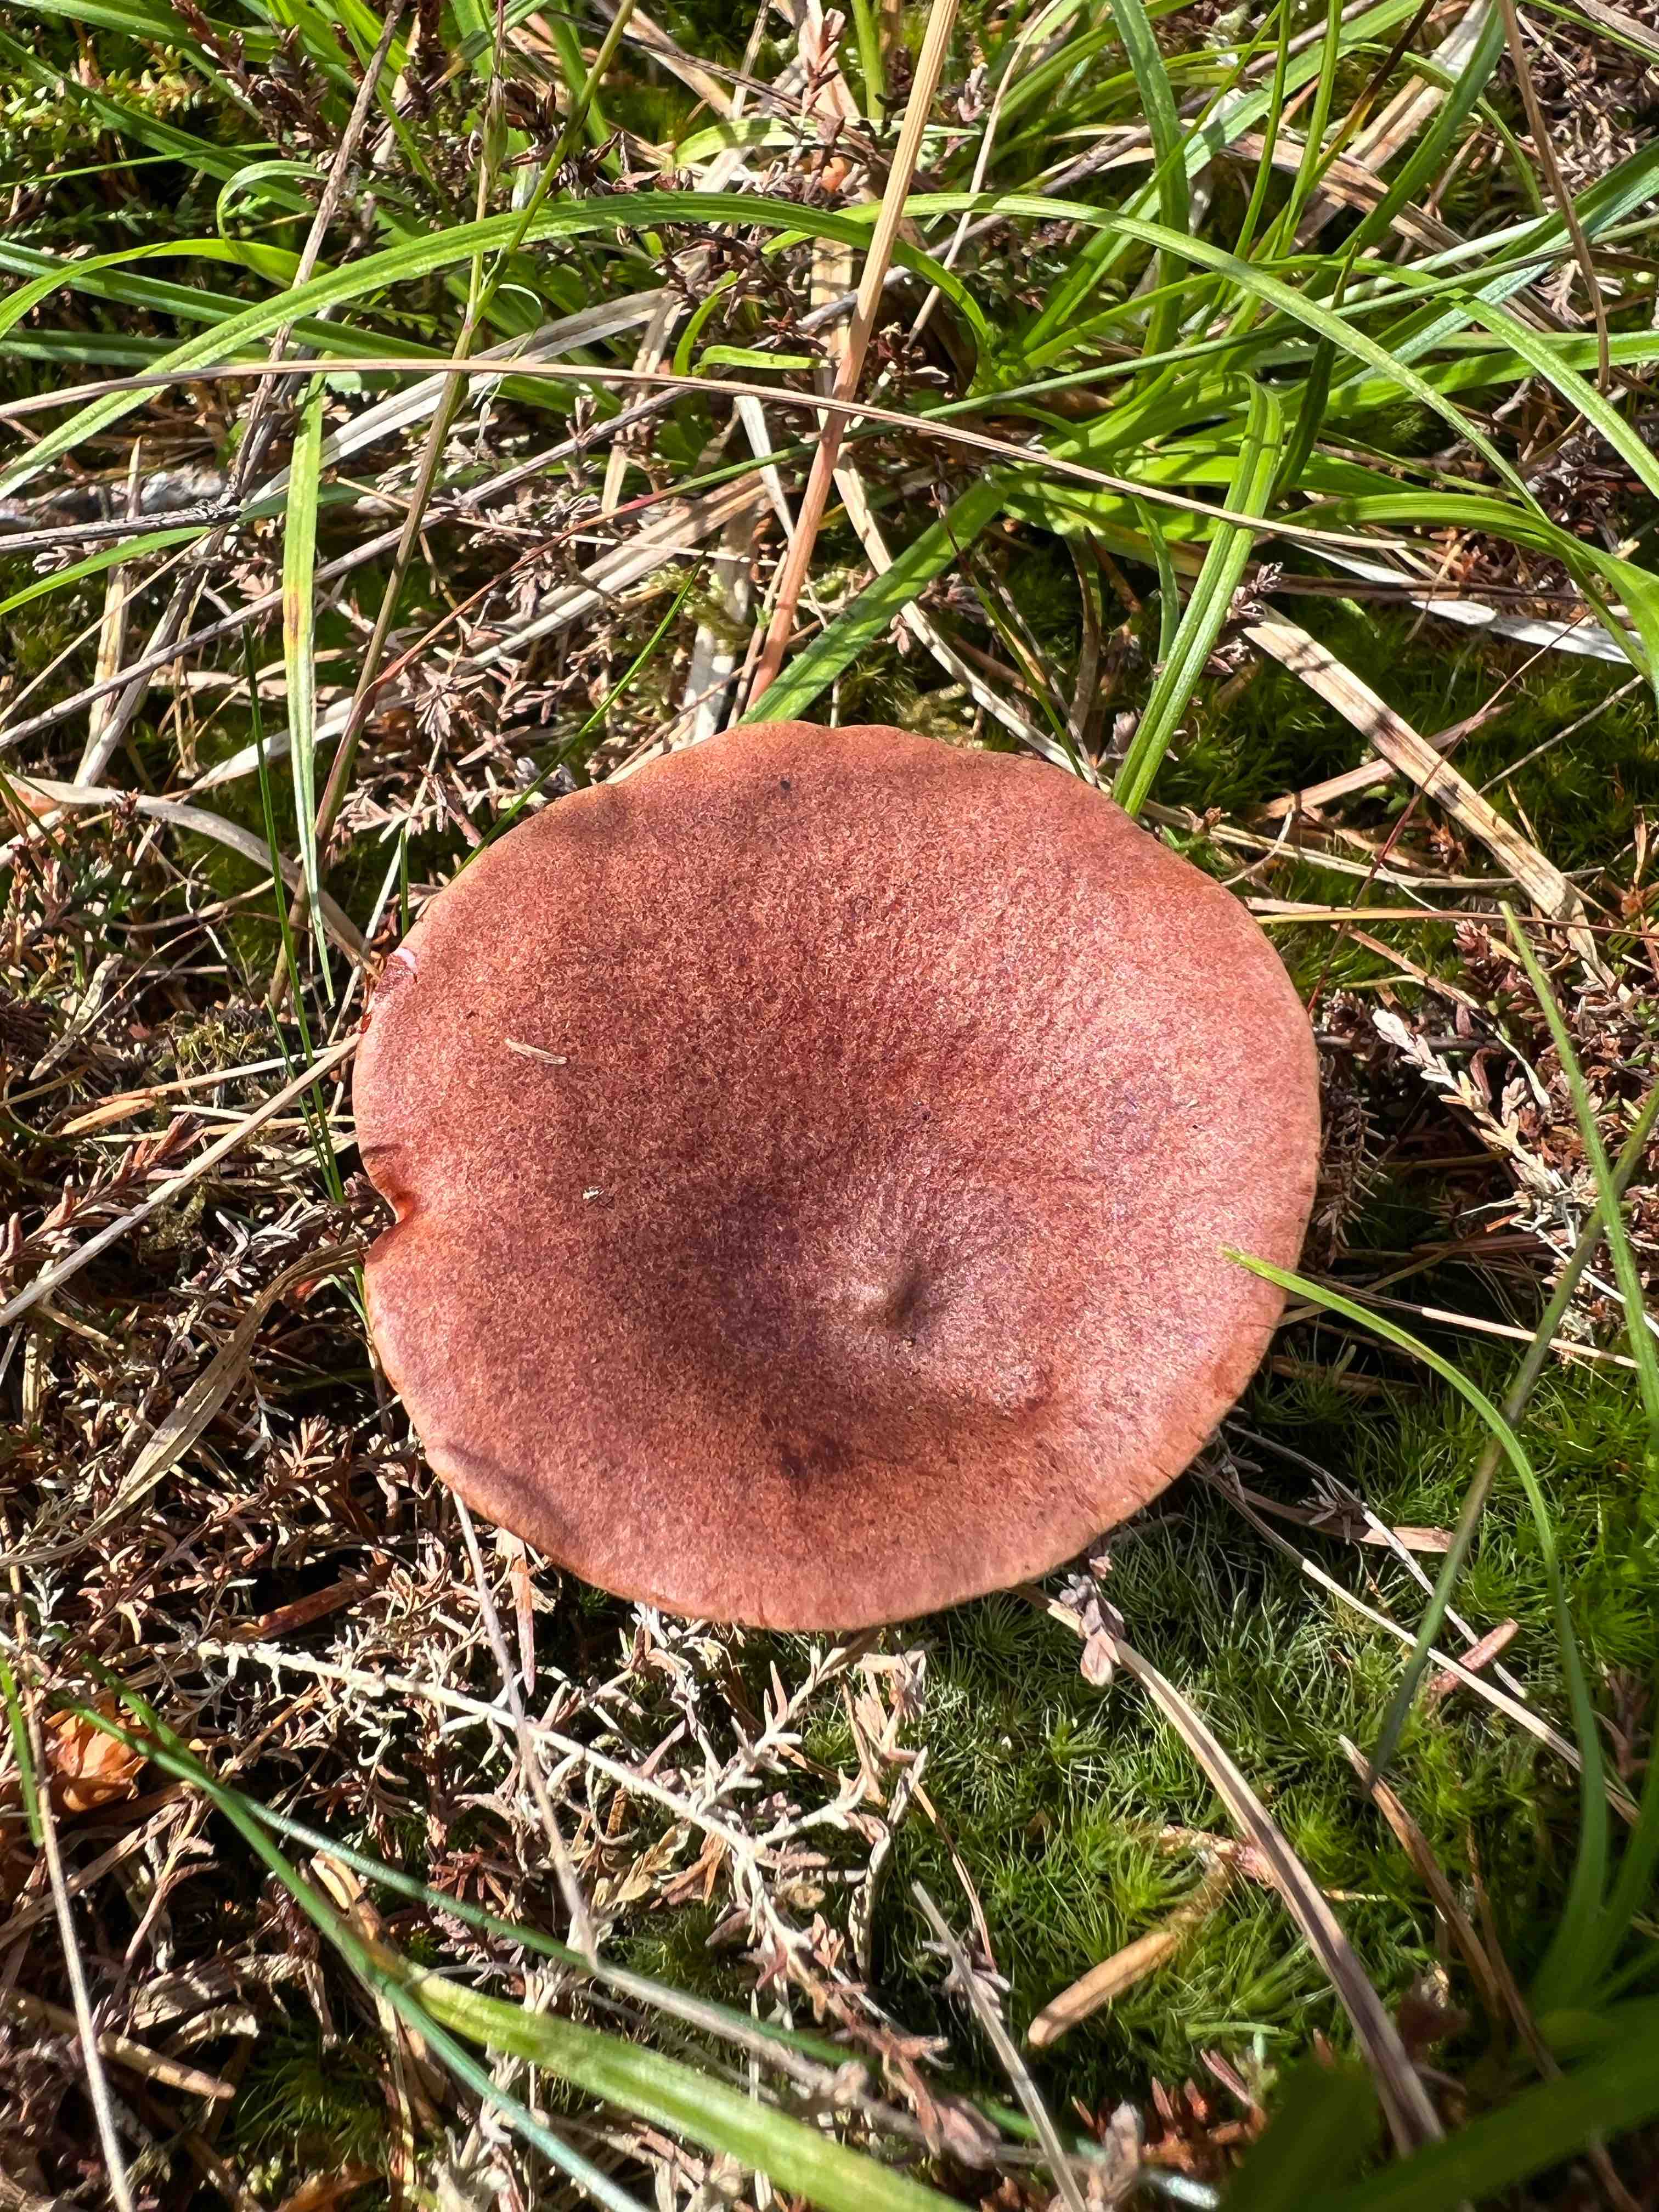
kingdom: Fungi
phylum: Basidiomycota
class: Agaricomycetes
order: Russulales
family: Russulaceae
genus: Lactarius
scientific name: Lactarius rufus
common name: rødbrun mælkehat
